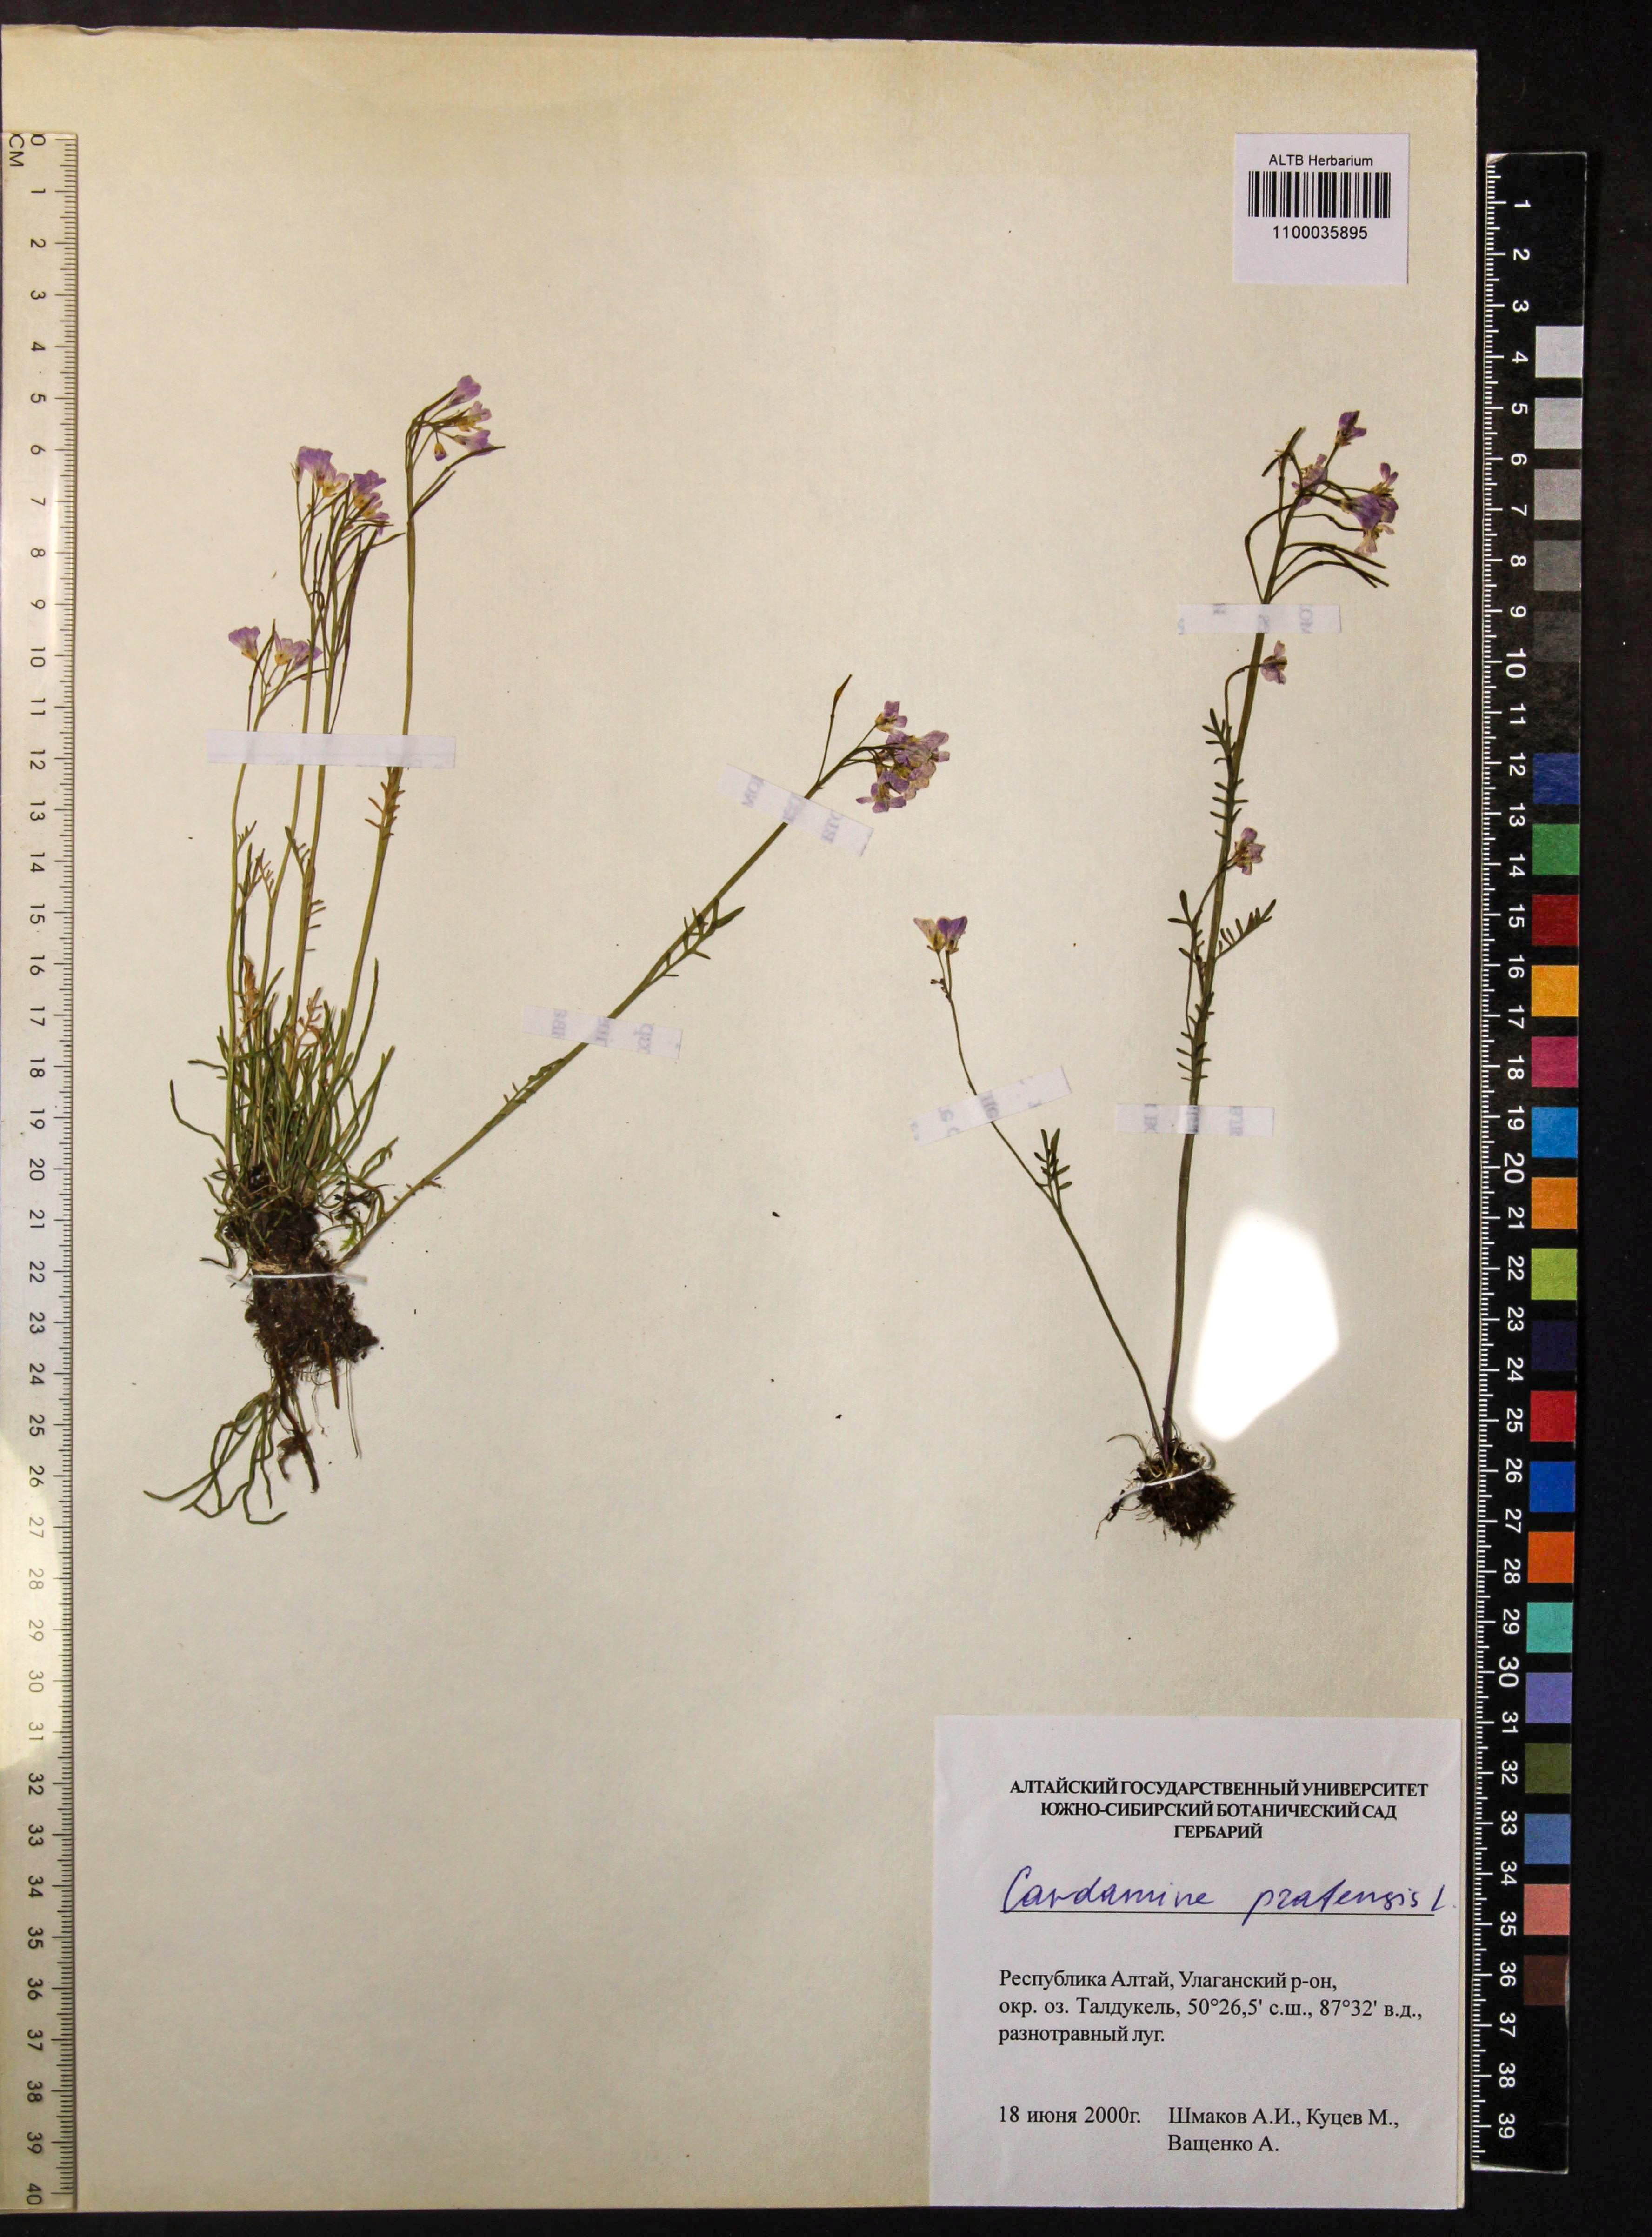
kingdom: Plantae
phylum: Tracheophyta
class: Magnoliopsida
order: Brassicales
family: Brassicaceae
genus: Cardamine
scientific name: Cardamine pratensis
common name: Cuckoo flower
